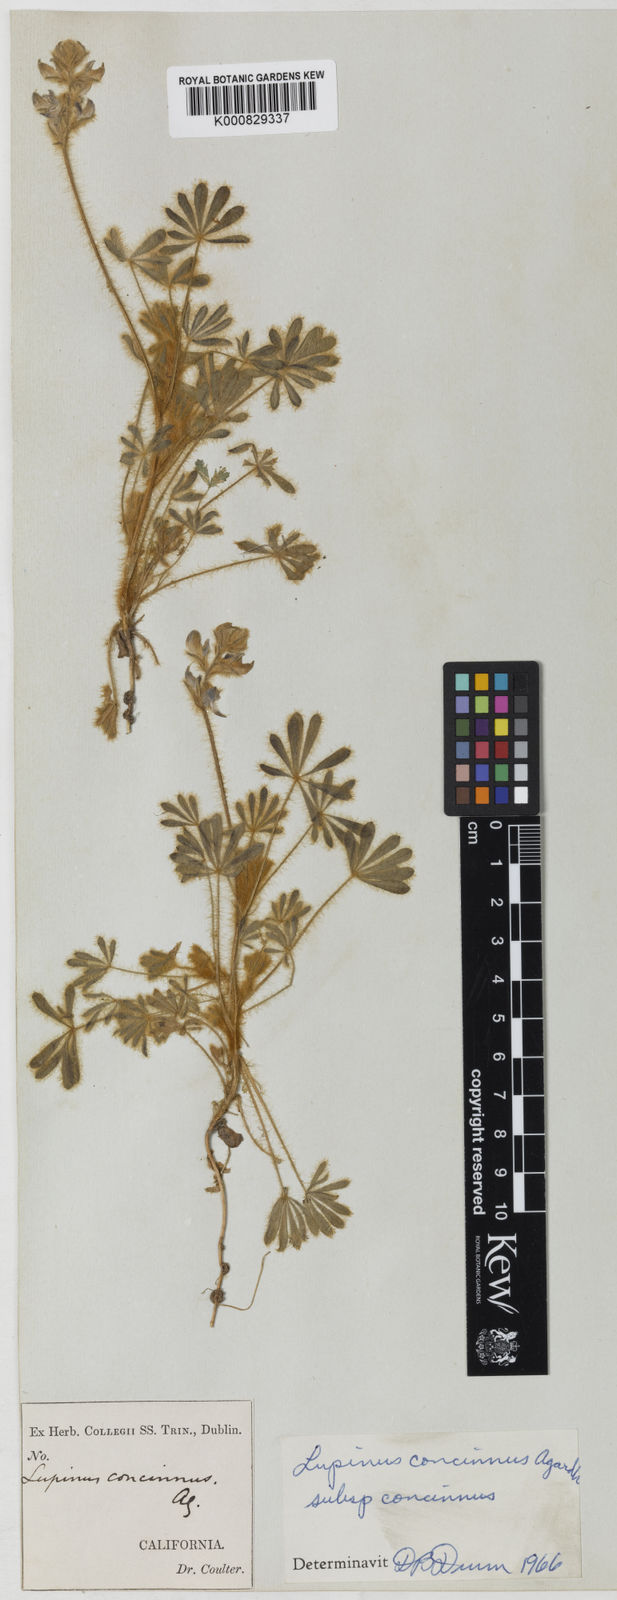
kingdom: Plantae
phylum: Tracheophyta
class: Magnoliopsida
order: Fabales
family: Fabaceae
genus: Lupinus
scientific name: Lupinus concinnus
